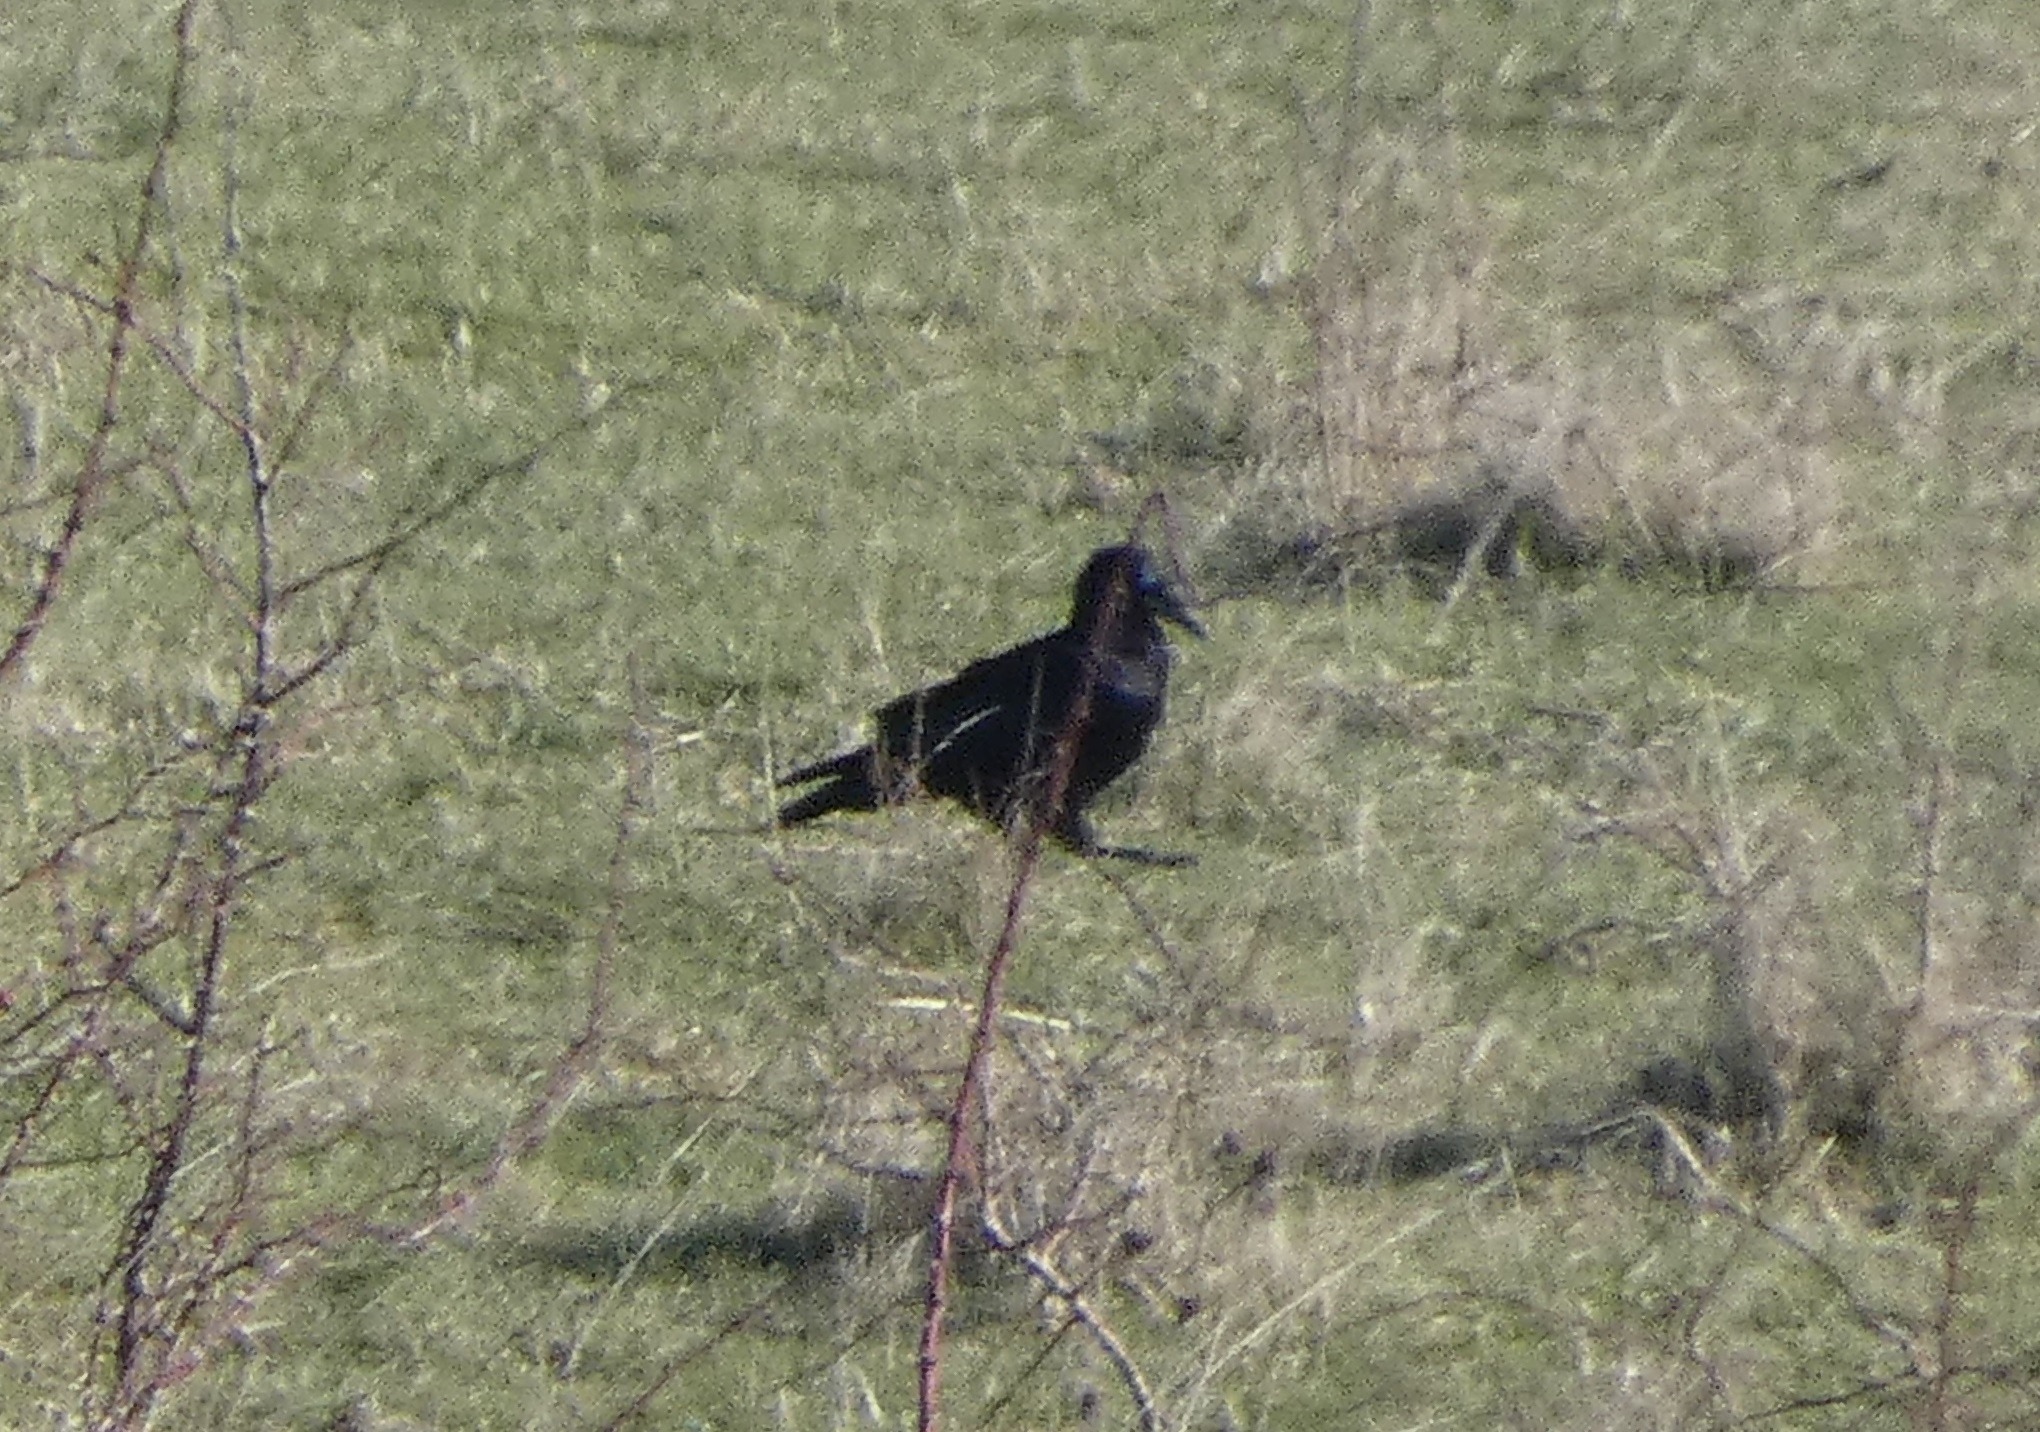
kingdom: Animalia
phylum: Chordata
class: Aves
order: Passeriformes
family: Corvidae
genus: Corvus
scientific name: Corvus frugilegus
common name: Råge
